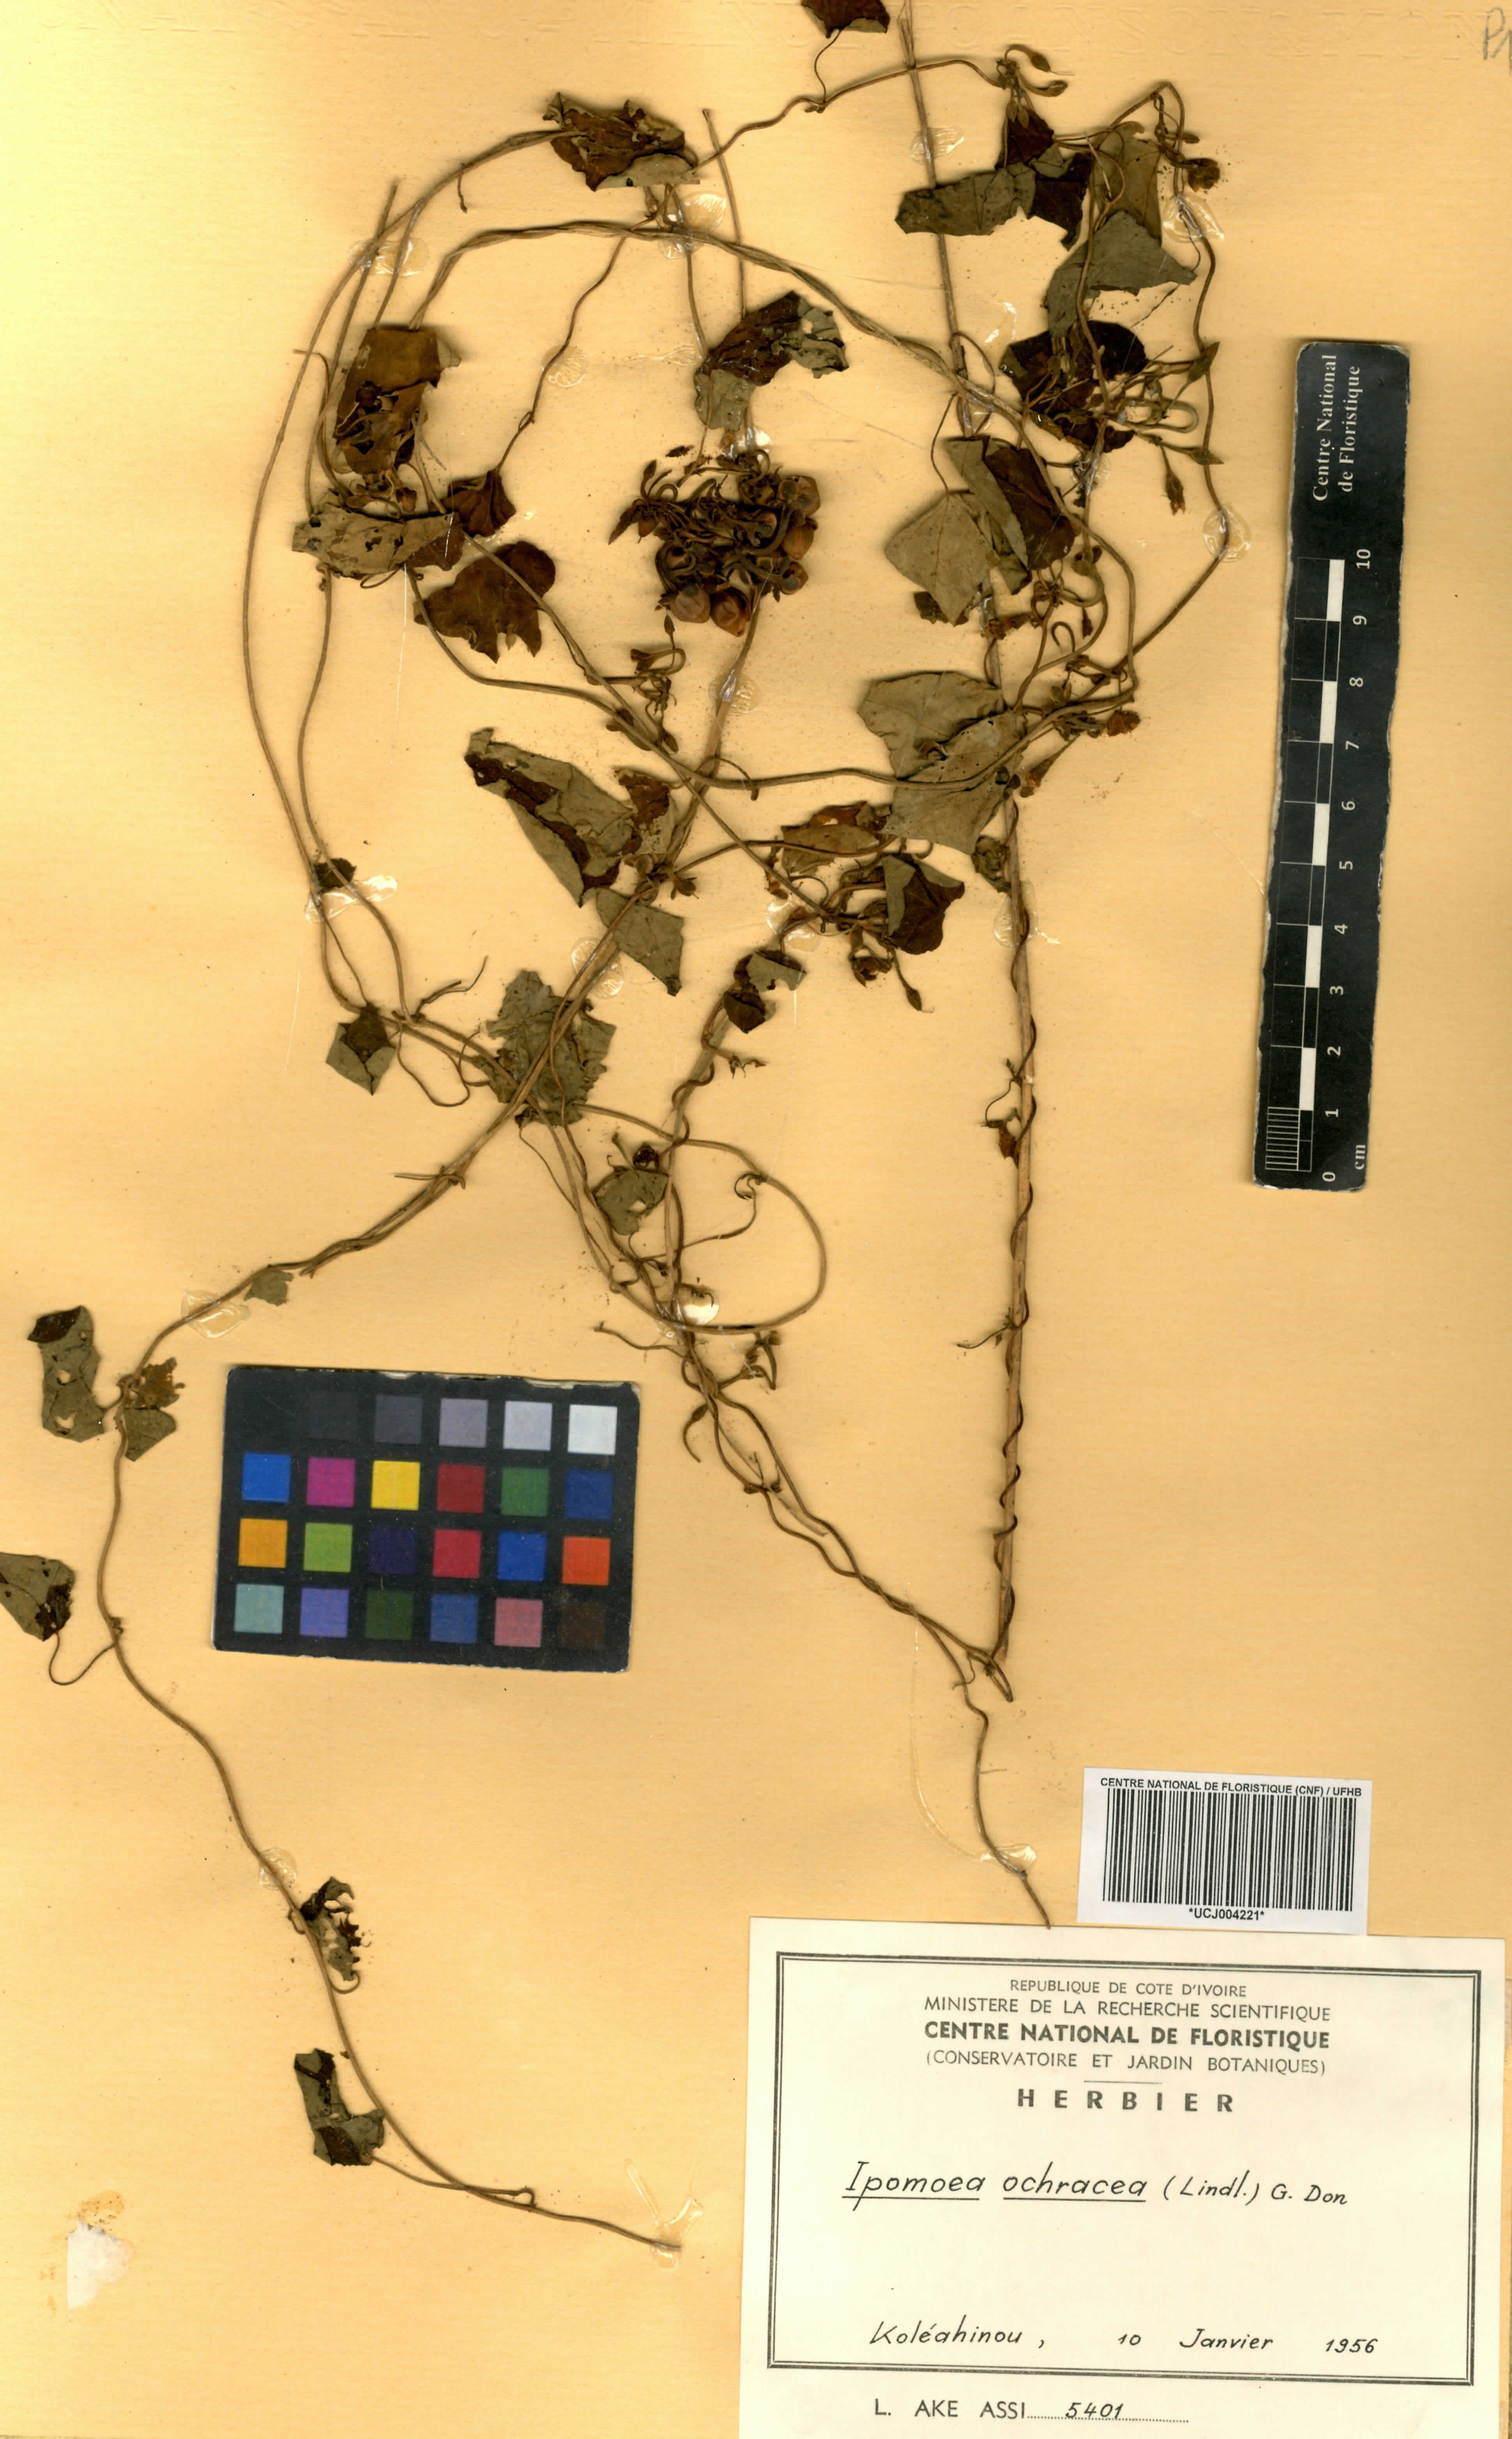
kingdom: Plantae
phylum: Tracheophyta
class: Magnoliopsida
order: Solanales
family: Convolvulaceae
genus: Ipomoea
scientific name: Ipomoea ochracea
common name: Fence morning-glory
